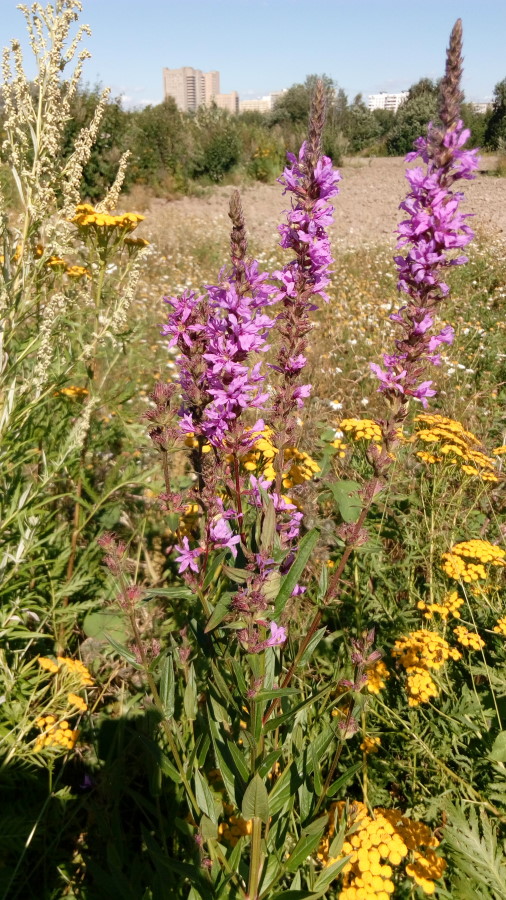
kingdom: Plantae
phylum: Tracheophyta
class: Magnoliopsida
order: Myrtales
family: Lythraceae
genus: Lythrum
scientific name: Lythrum salicaria
